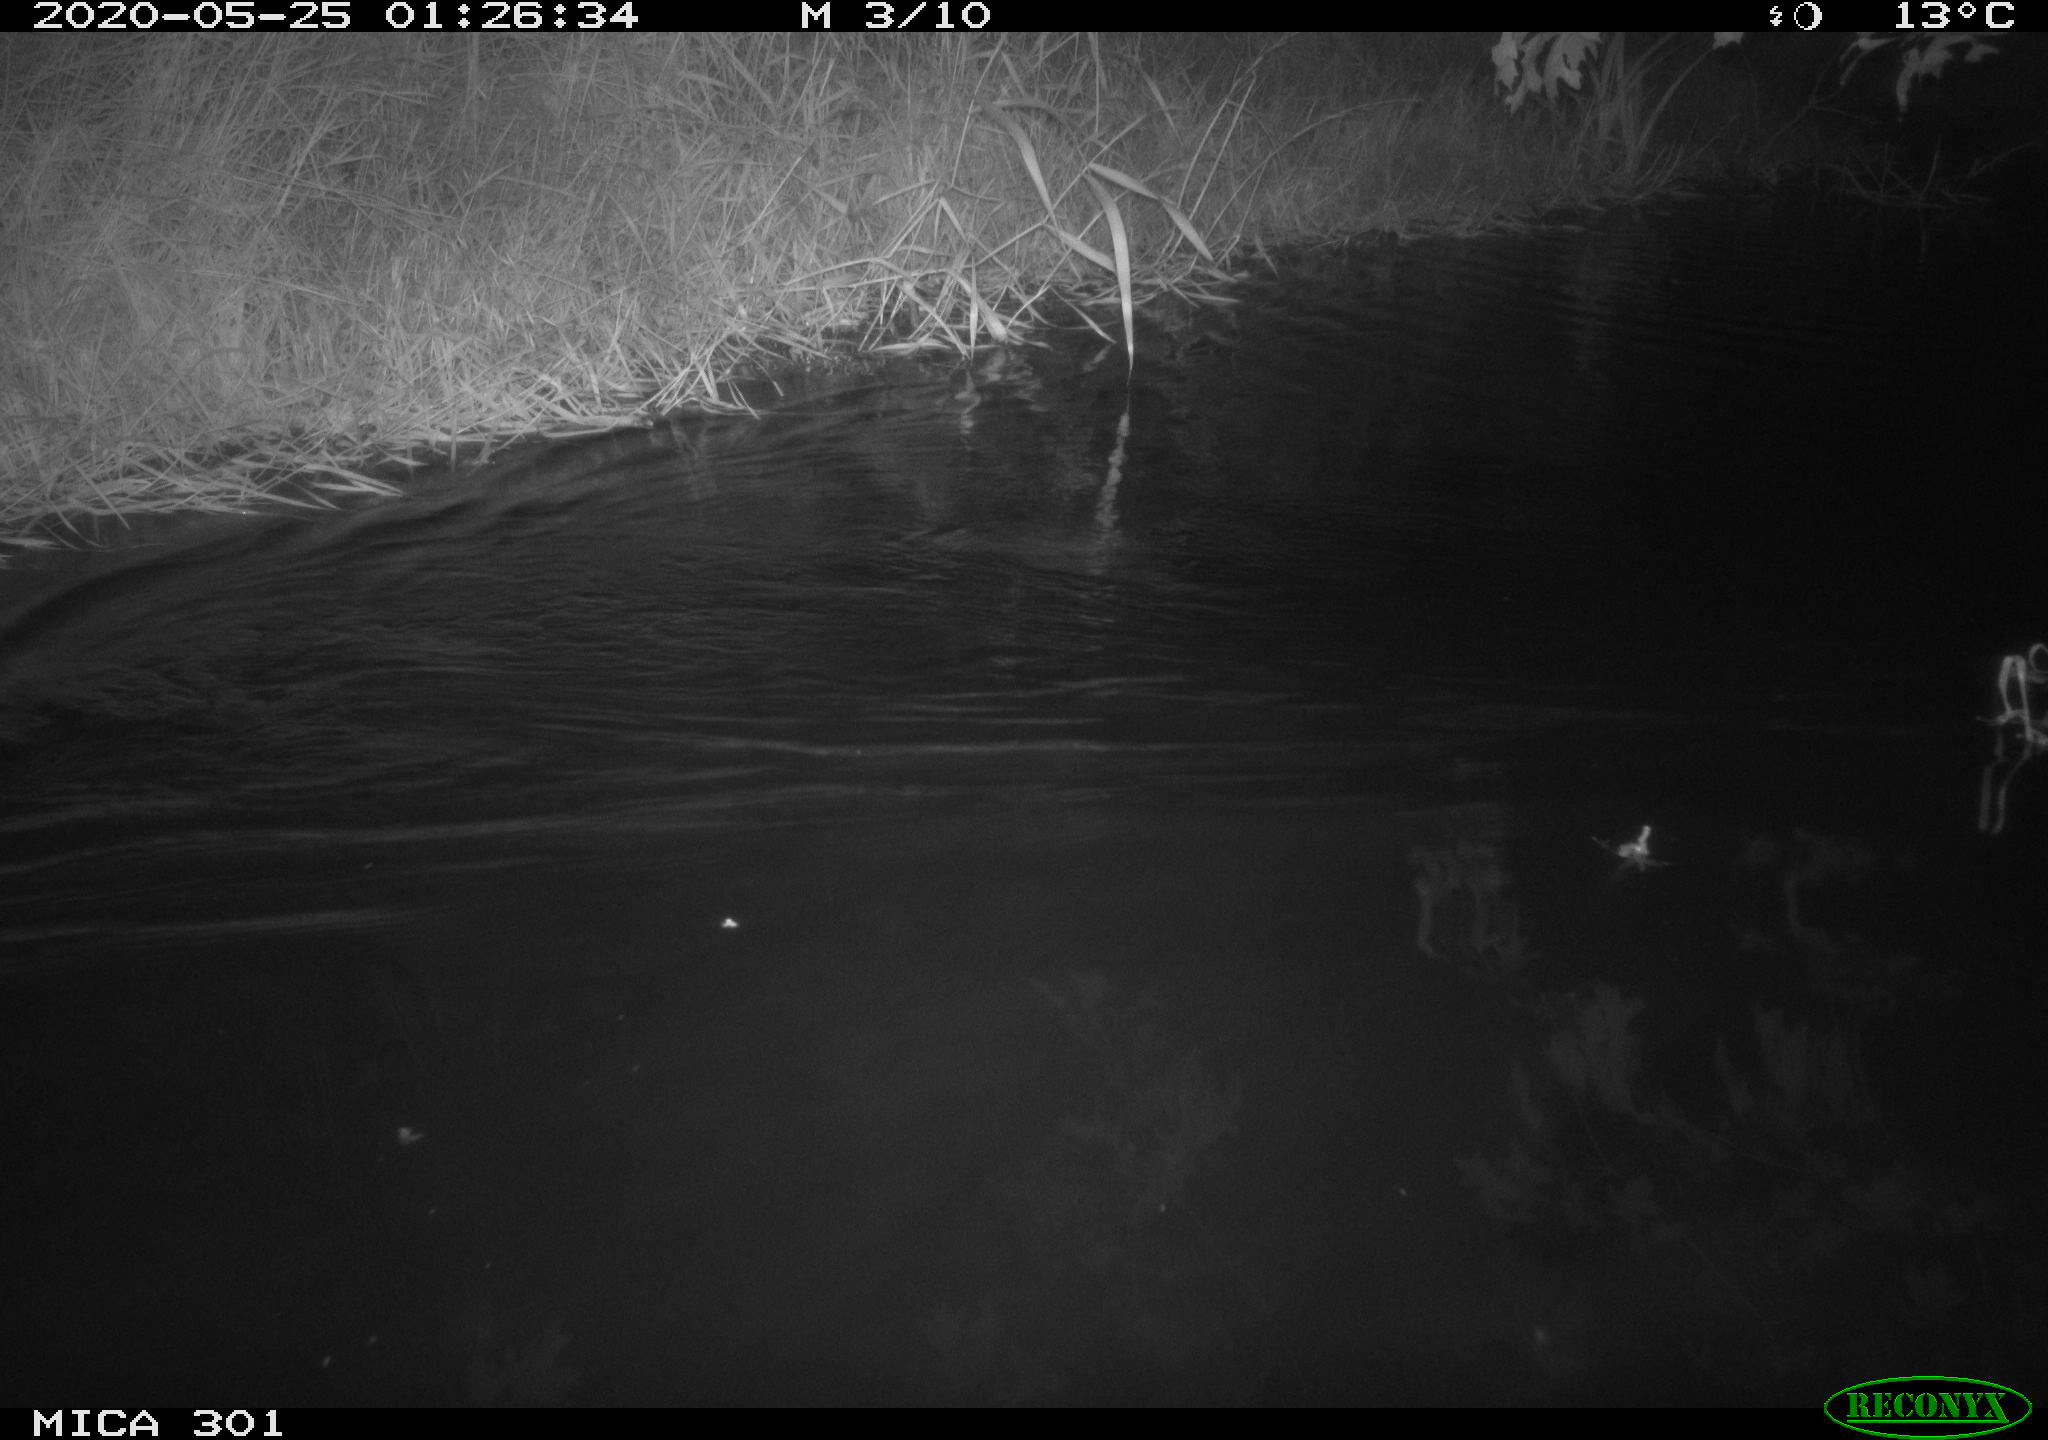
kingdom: Animalia
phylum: Chordata
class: Mammalia
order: Rodentia
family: Castoridae
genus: Castor
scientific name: Castor fiber
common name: Eurasian beaver
